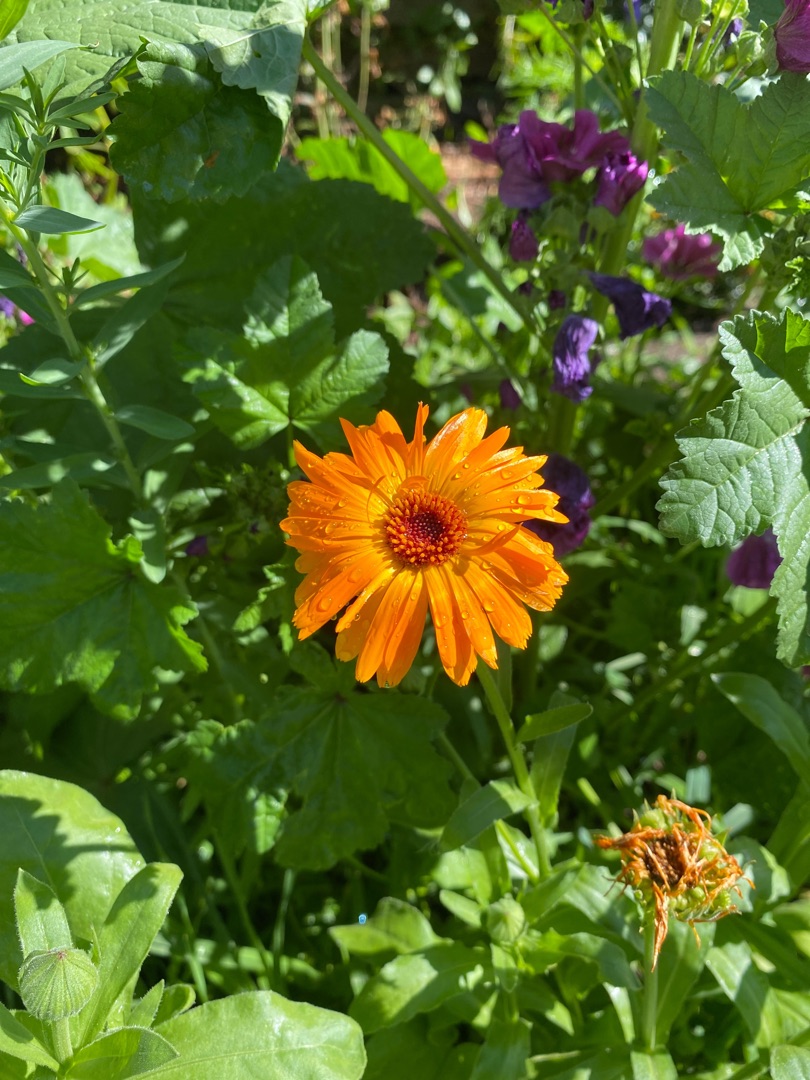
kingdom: Plantae
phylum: Tracheophyta
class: Magnoliopsida
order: Asterales
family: Asteraceae
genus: Calendula
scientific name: Calendula officinalis
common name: Have-morgenfrue
